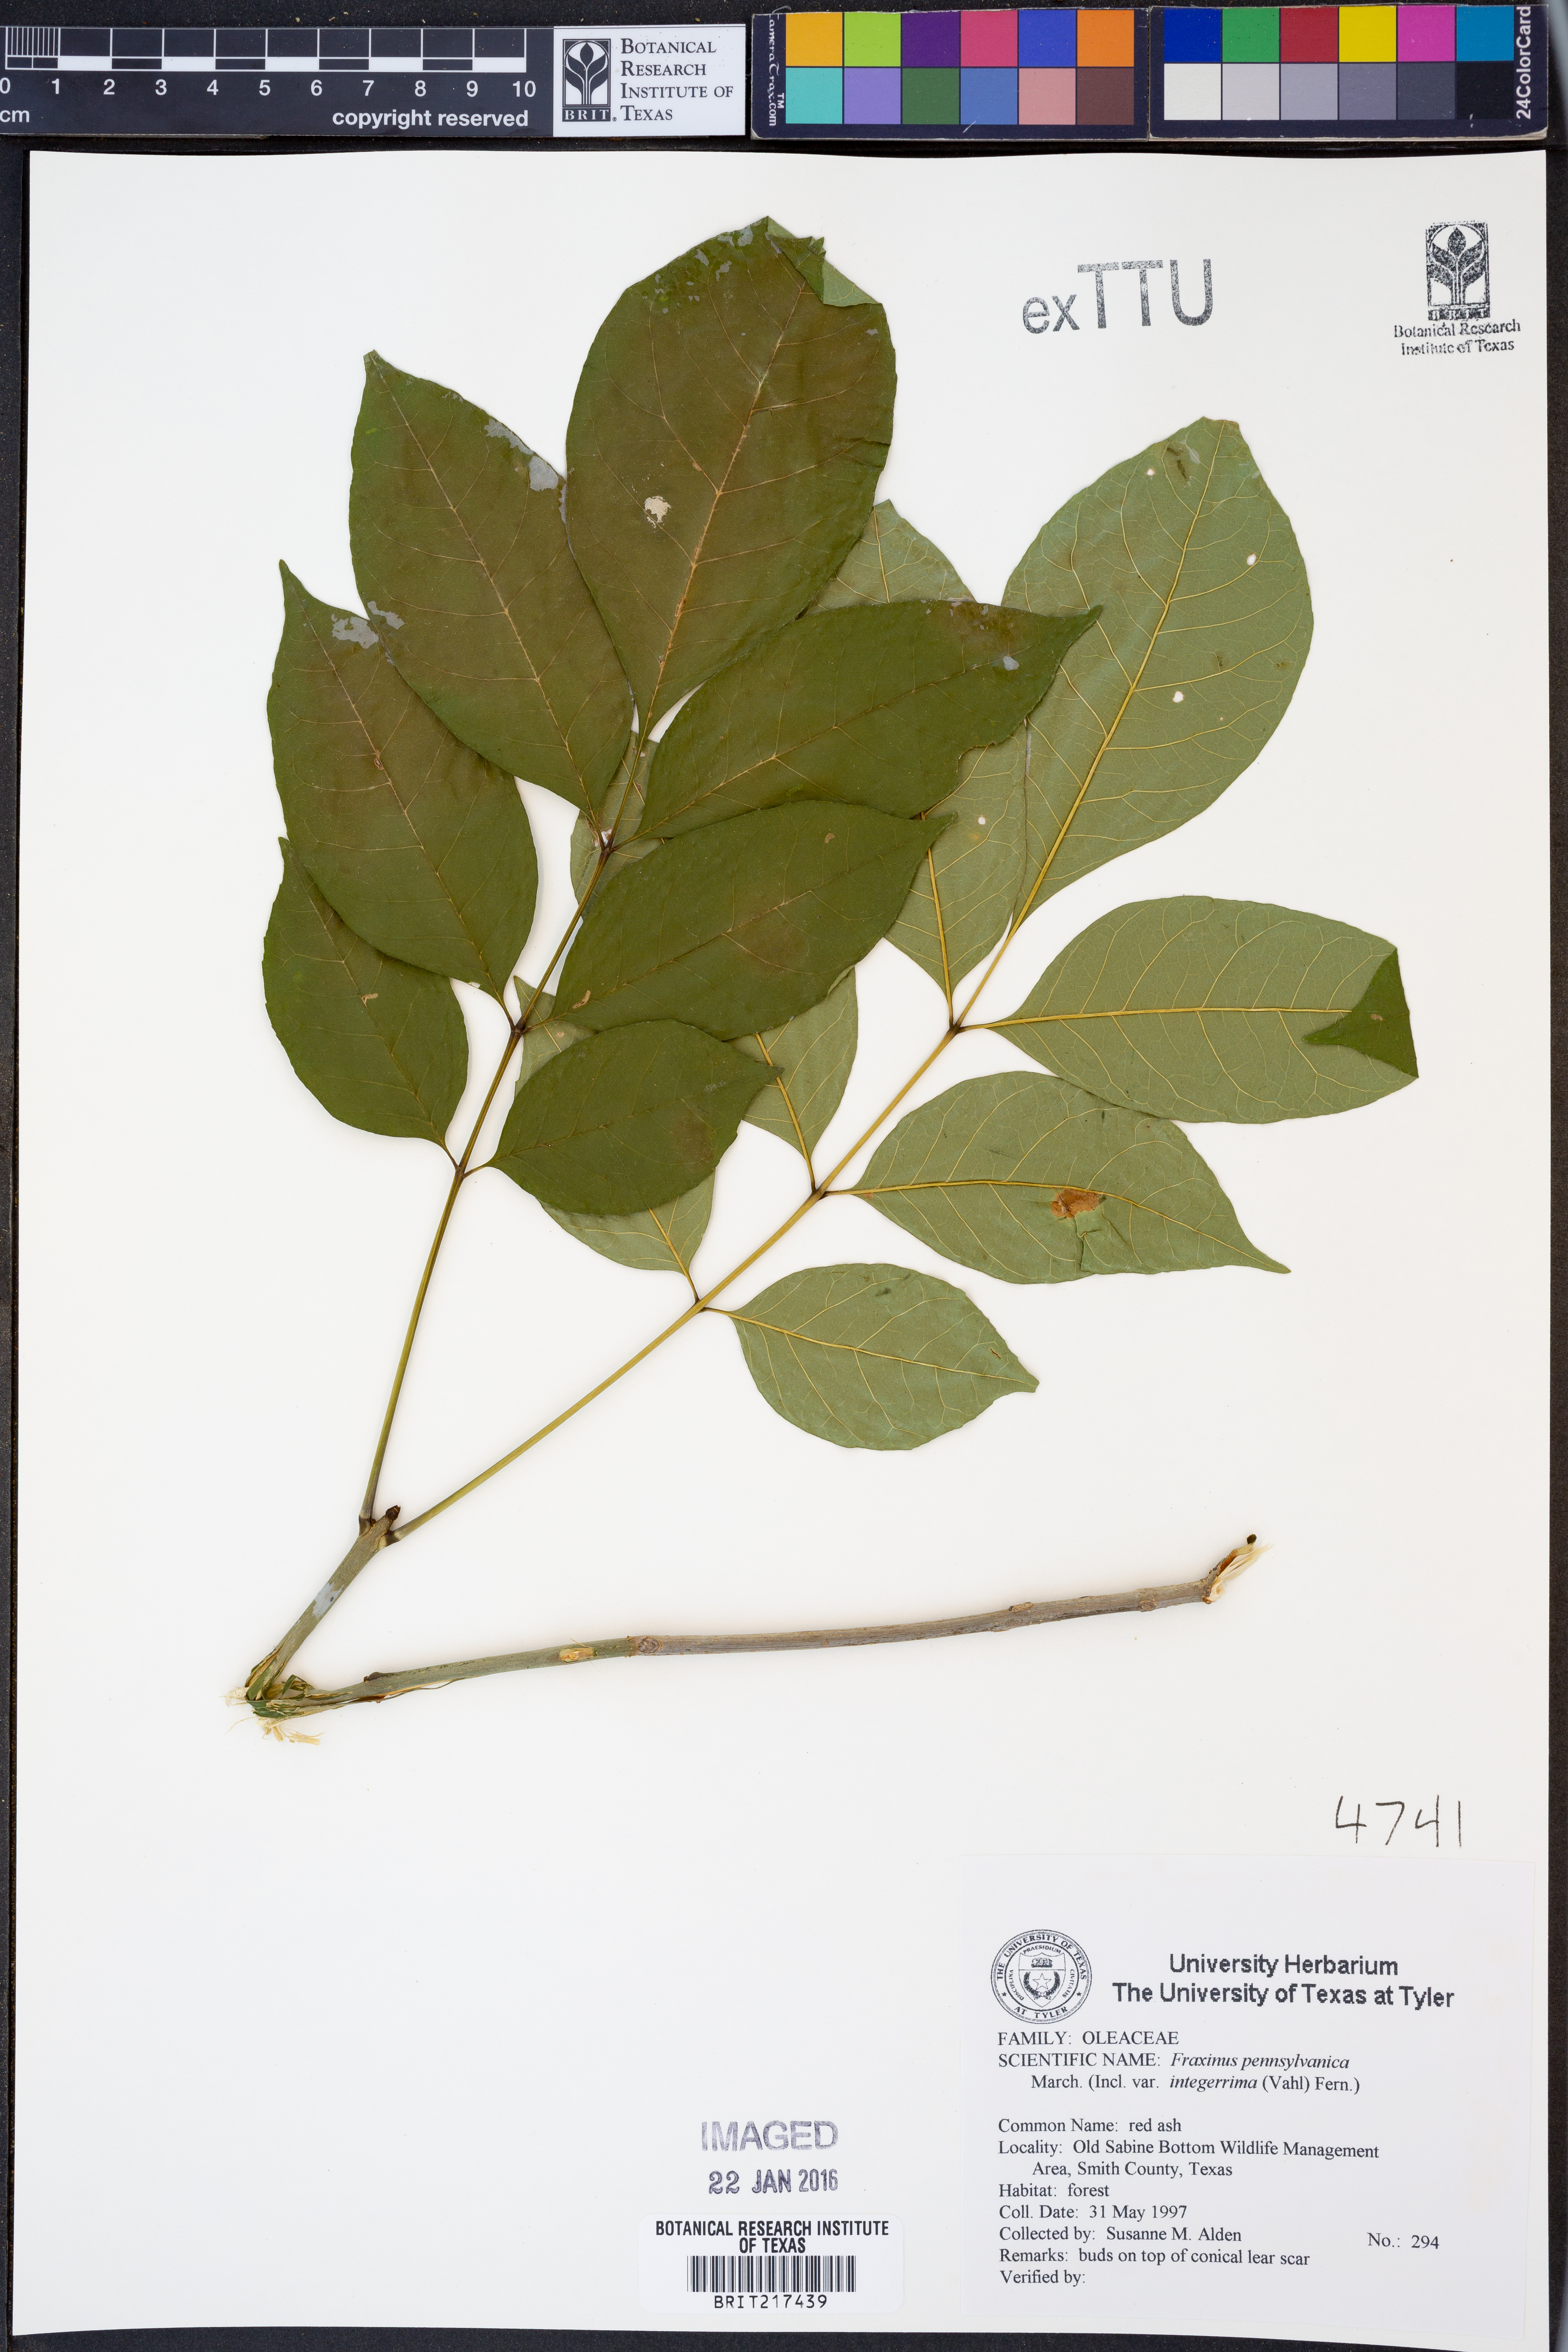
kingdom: Plantae
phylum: Tracheophyta
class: Magnoliopsida
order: Lamiales
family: Oleaceae
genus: Fraxinus
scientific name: Fraxinus pennsylvanica
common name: Green ash
